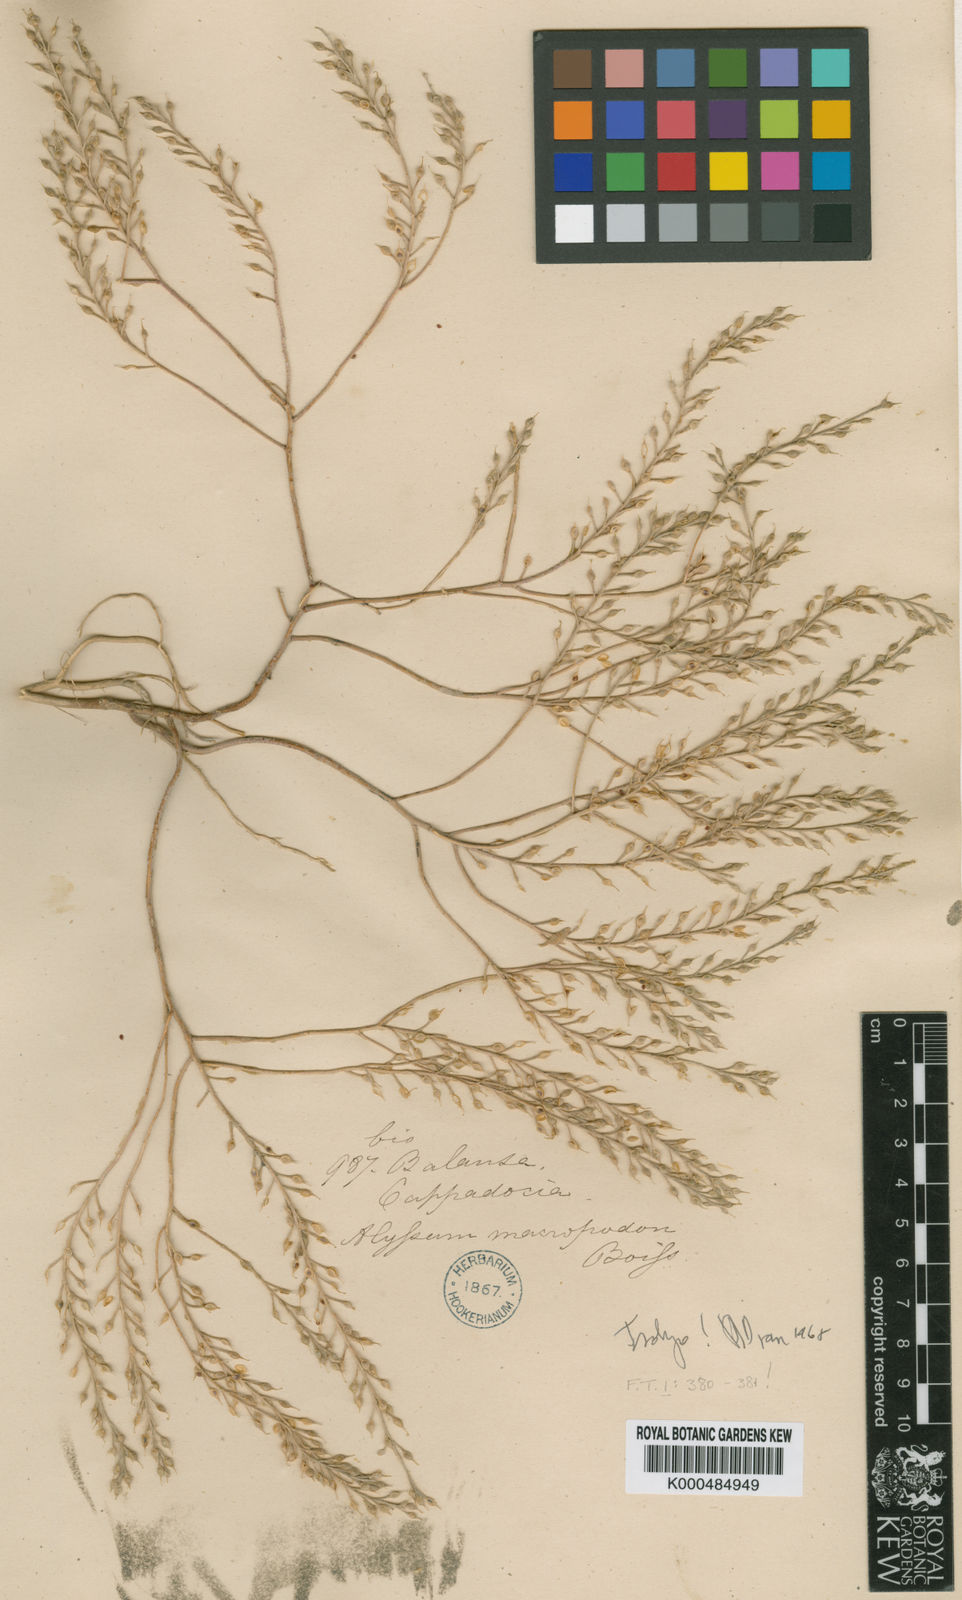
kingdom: Plantae
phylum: Tracheophyta
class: Magnoliopsida
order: Brassicales
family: Brassicaceae
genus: Alyssum
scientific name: Alyssum macropodum
